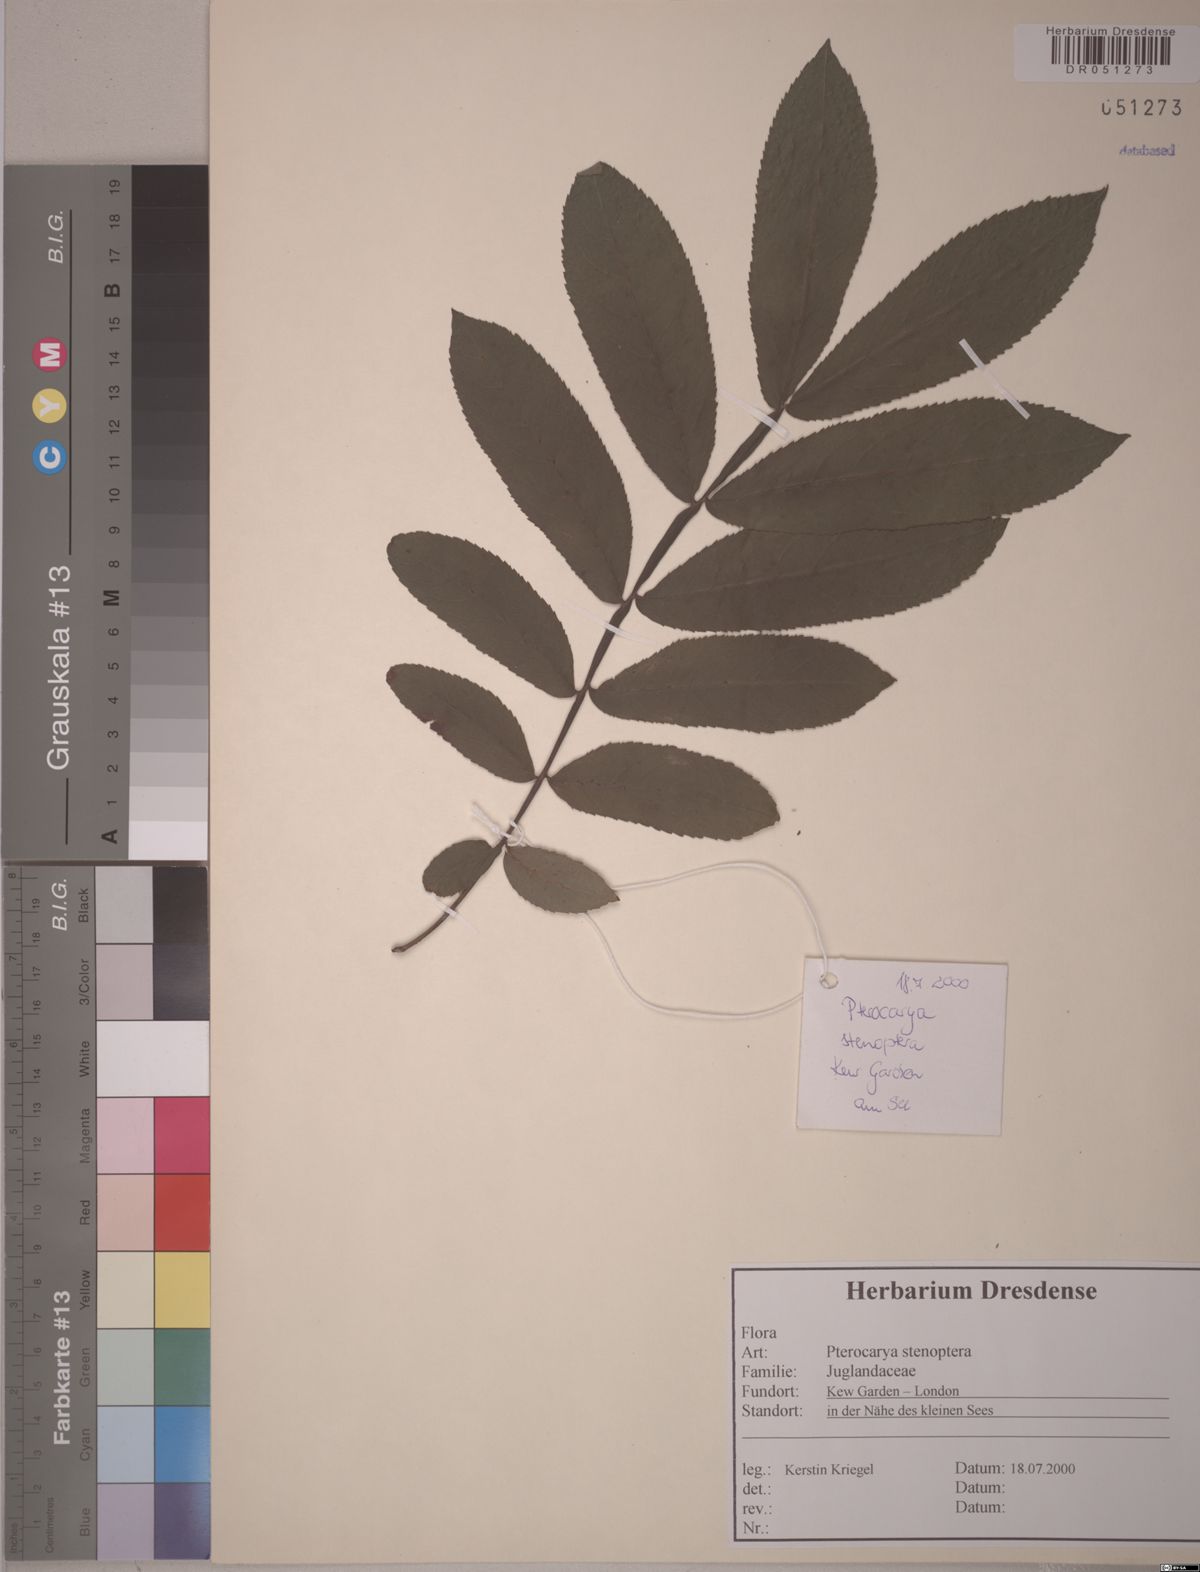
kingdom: Plantae
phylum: Tracheophyta
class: Magnoliopsida
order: Fagales
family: Juglandaceae
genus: Pterocarya
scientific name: Pterocarya stenoptera
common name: Chinese wingnut
